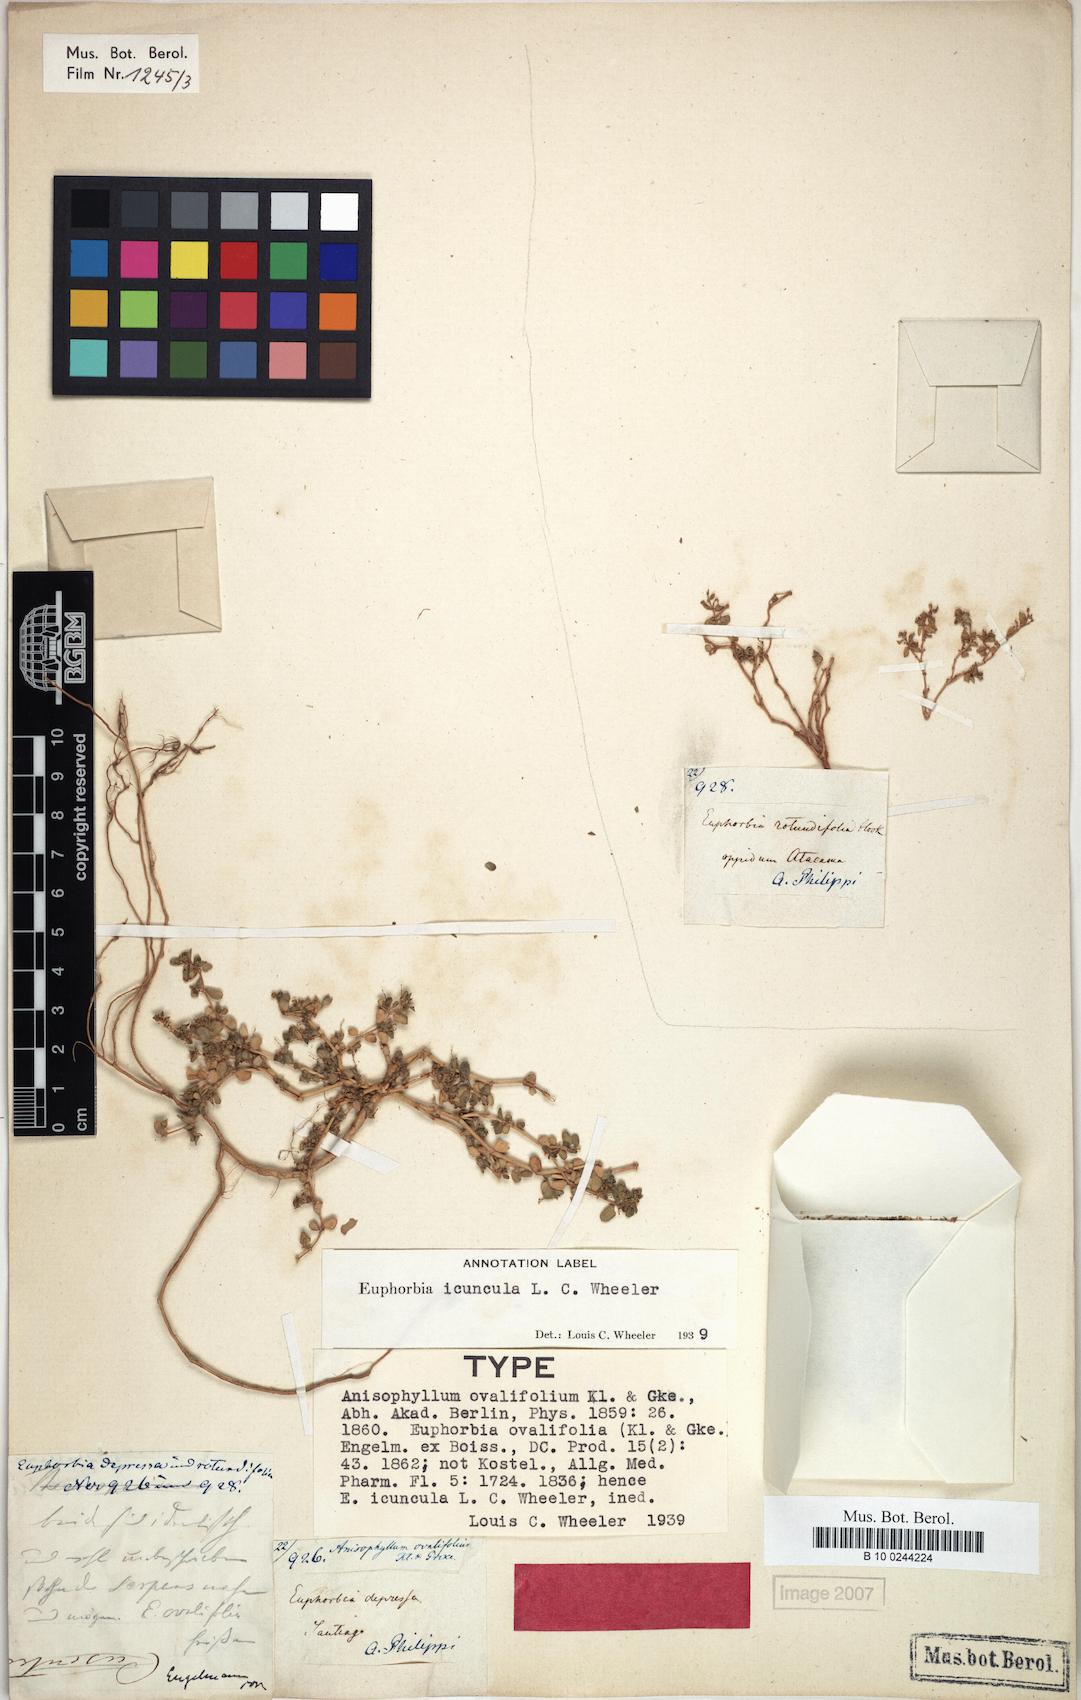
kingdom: Plantae
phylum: Tracheophyta
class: Magnoliopsida
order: Malpighiales
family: Euphorbiaceae
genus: Euphorbia
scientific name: Euphorbia
